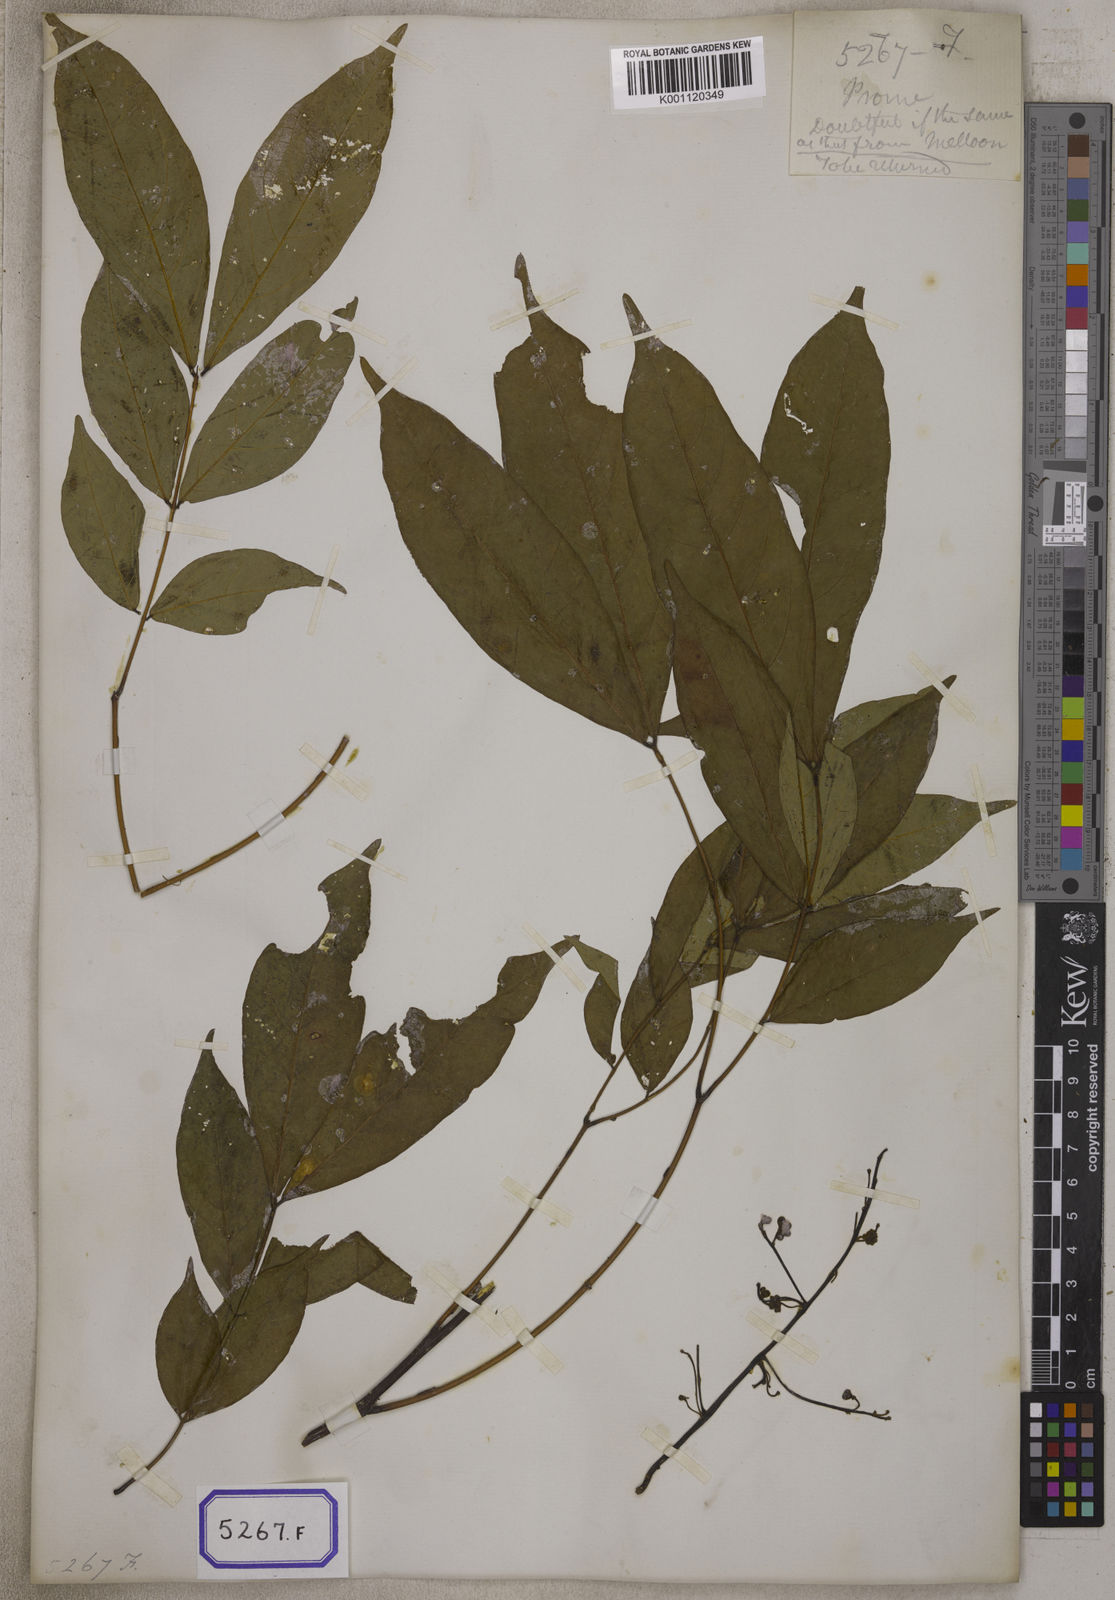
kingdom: Plantae
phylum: Tracheophyta
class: Magnoliopsida
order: Fabales
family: Fabaceae
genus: Albizia
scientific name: Albizia lucidior
